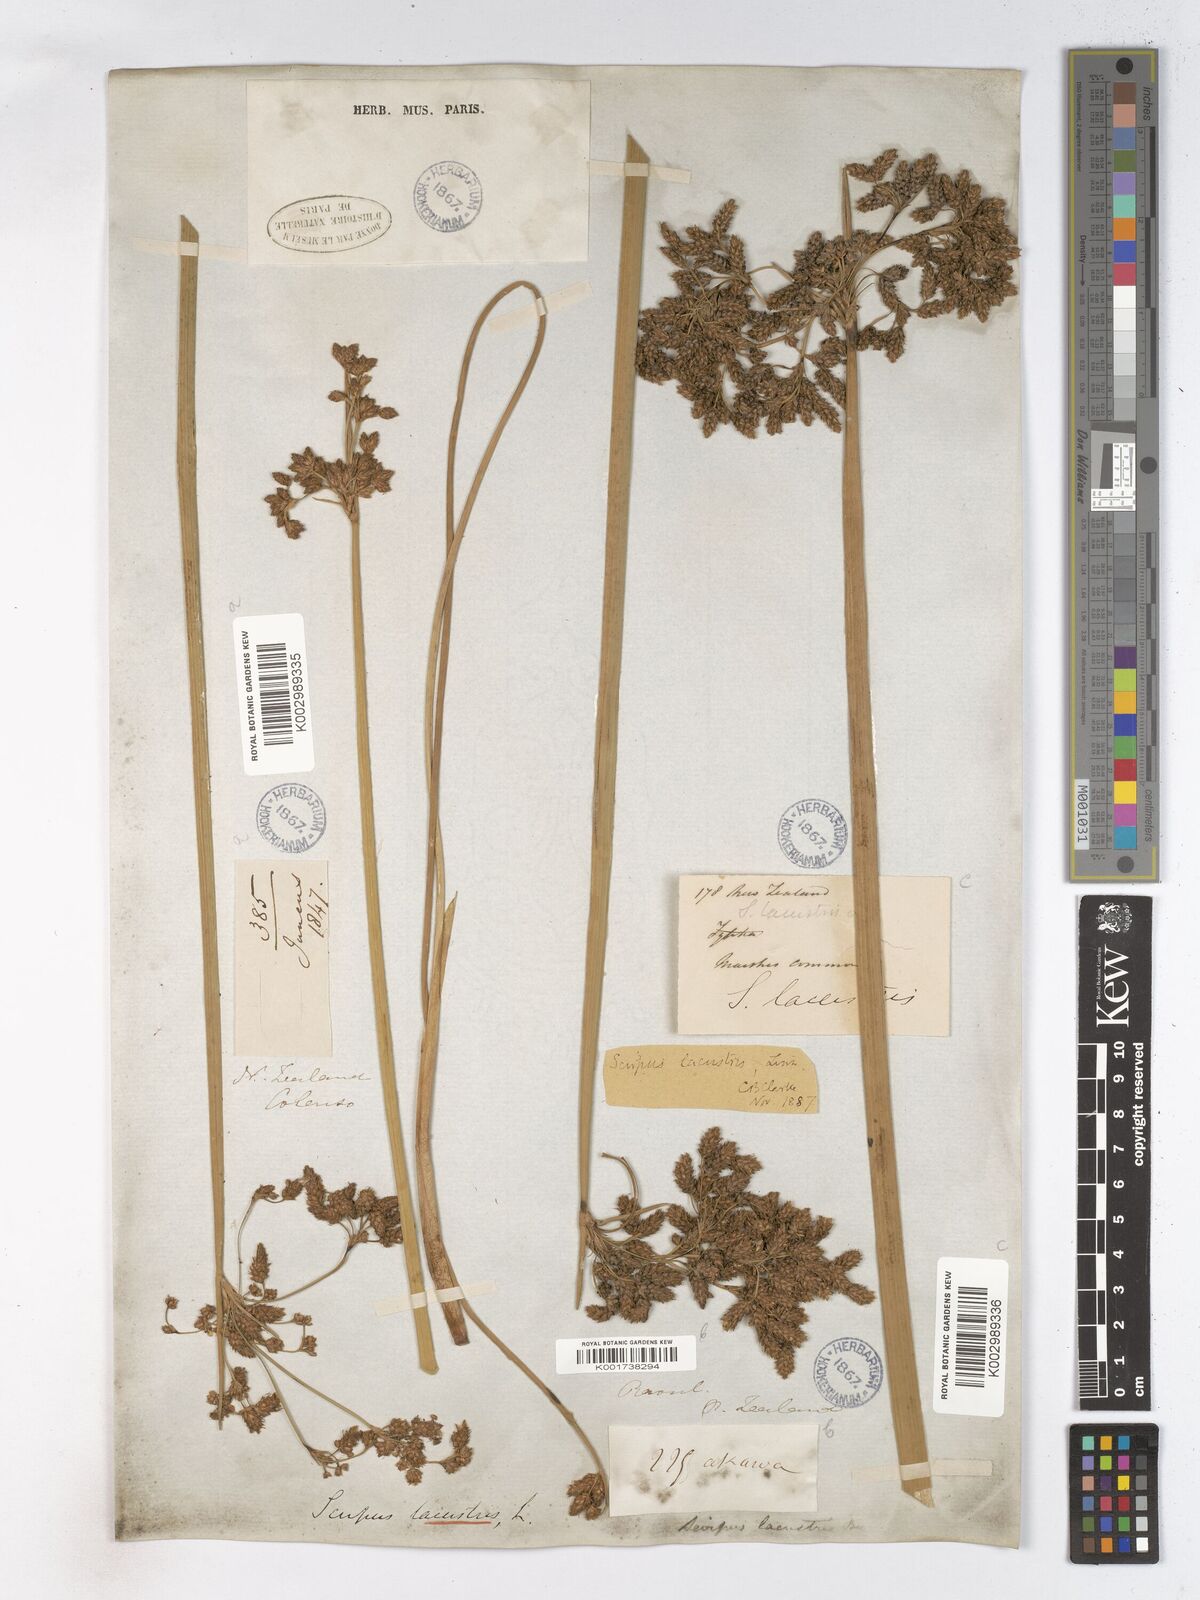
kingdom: Plantae
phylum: Tracheophyta
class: Liliopsida
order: Poales
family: Cyperaceae
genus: Schoenoplectus
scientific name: Schoenoplectus lacustris
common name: Common club-rush
